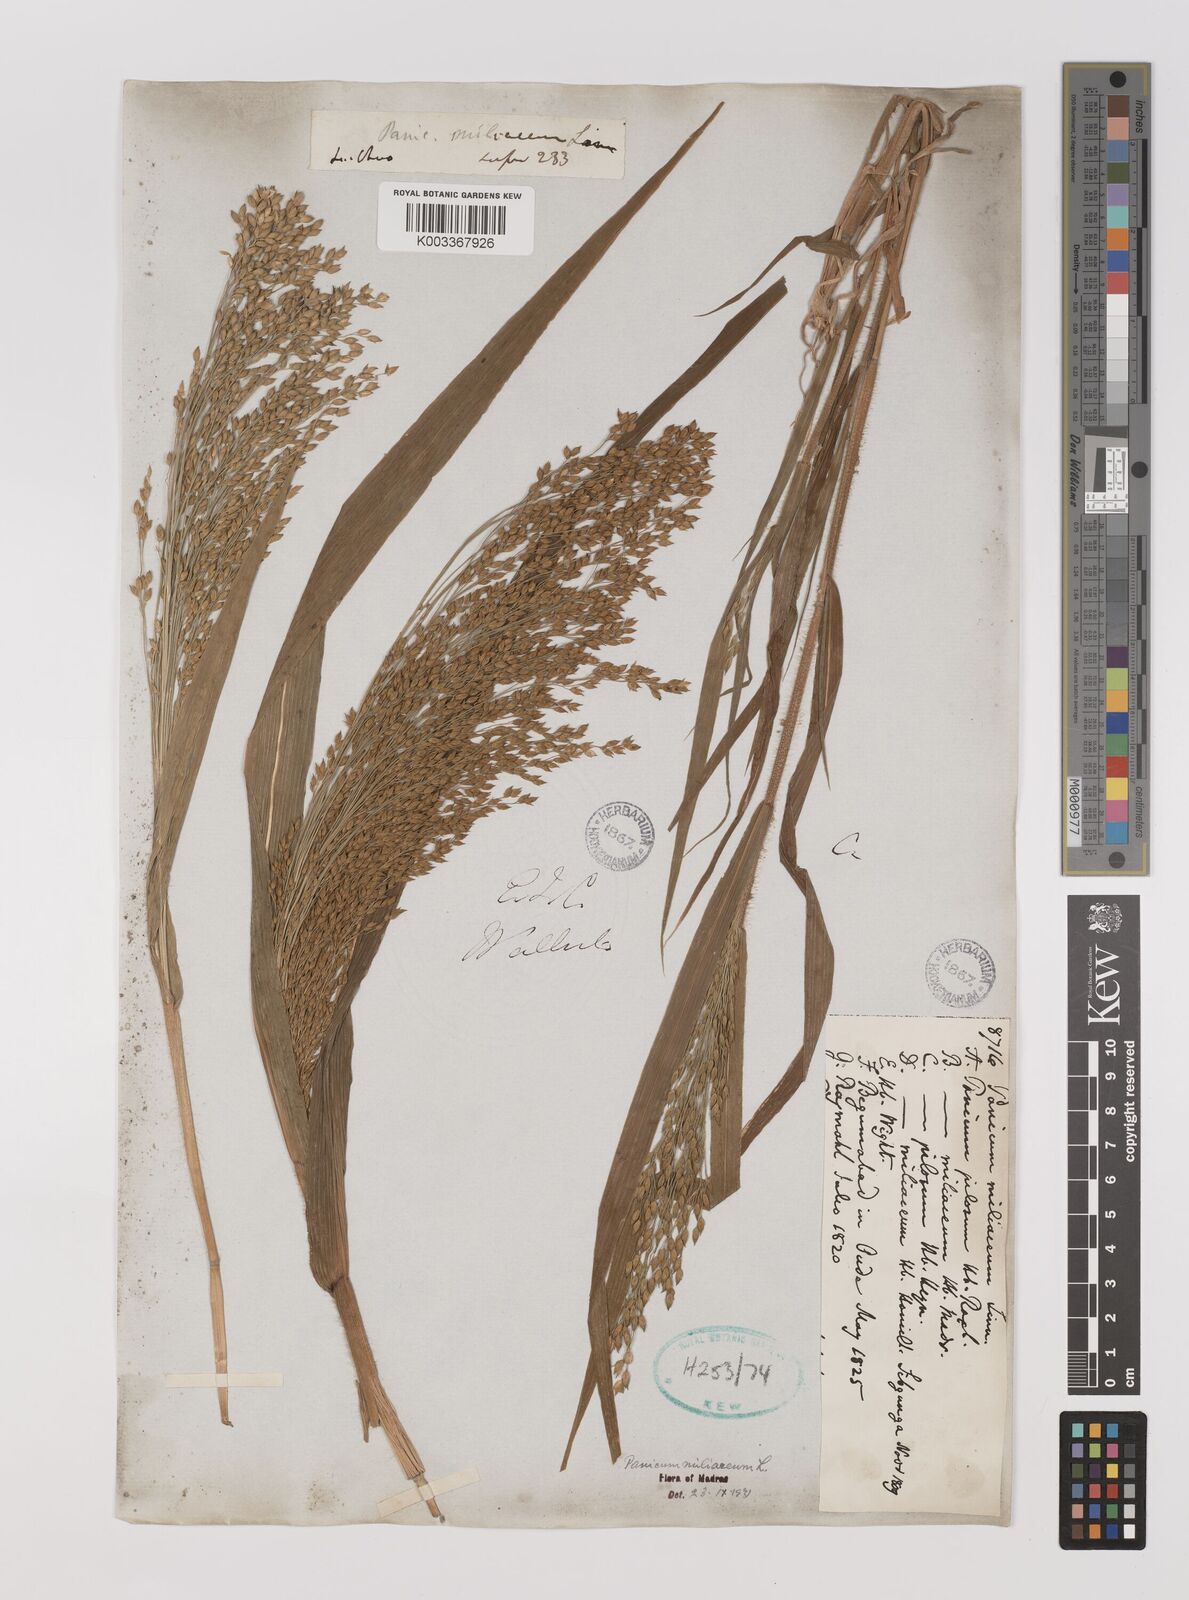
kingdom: Plantae
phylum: Tracheophyta
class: Liliopsida
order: Poales
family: Poaceae
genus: Panicum
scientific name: Panicum miliaceum
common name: Common millet
